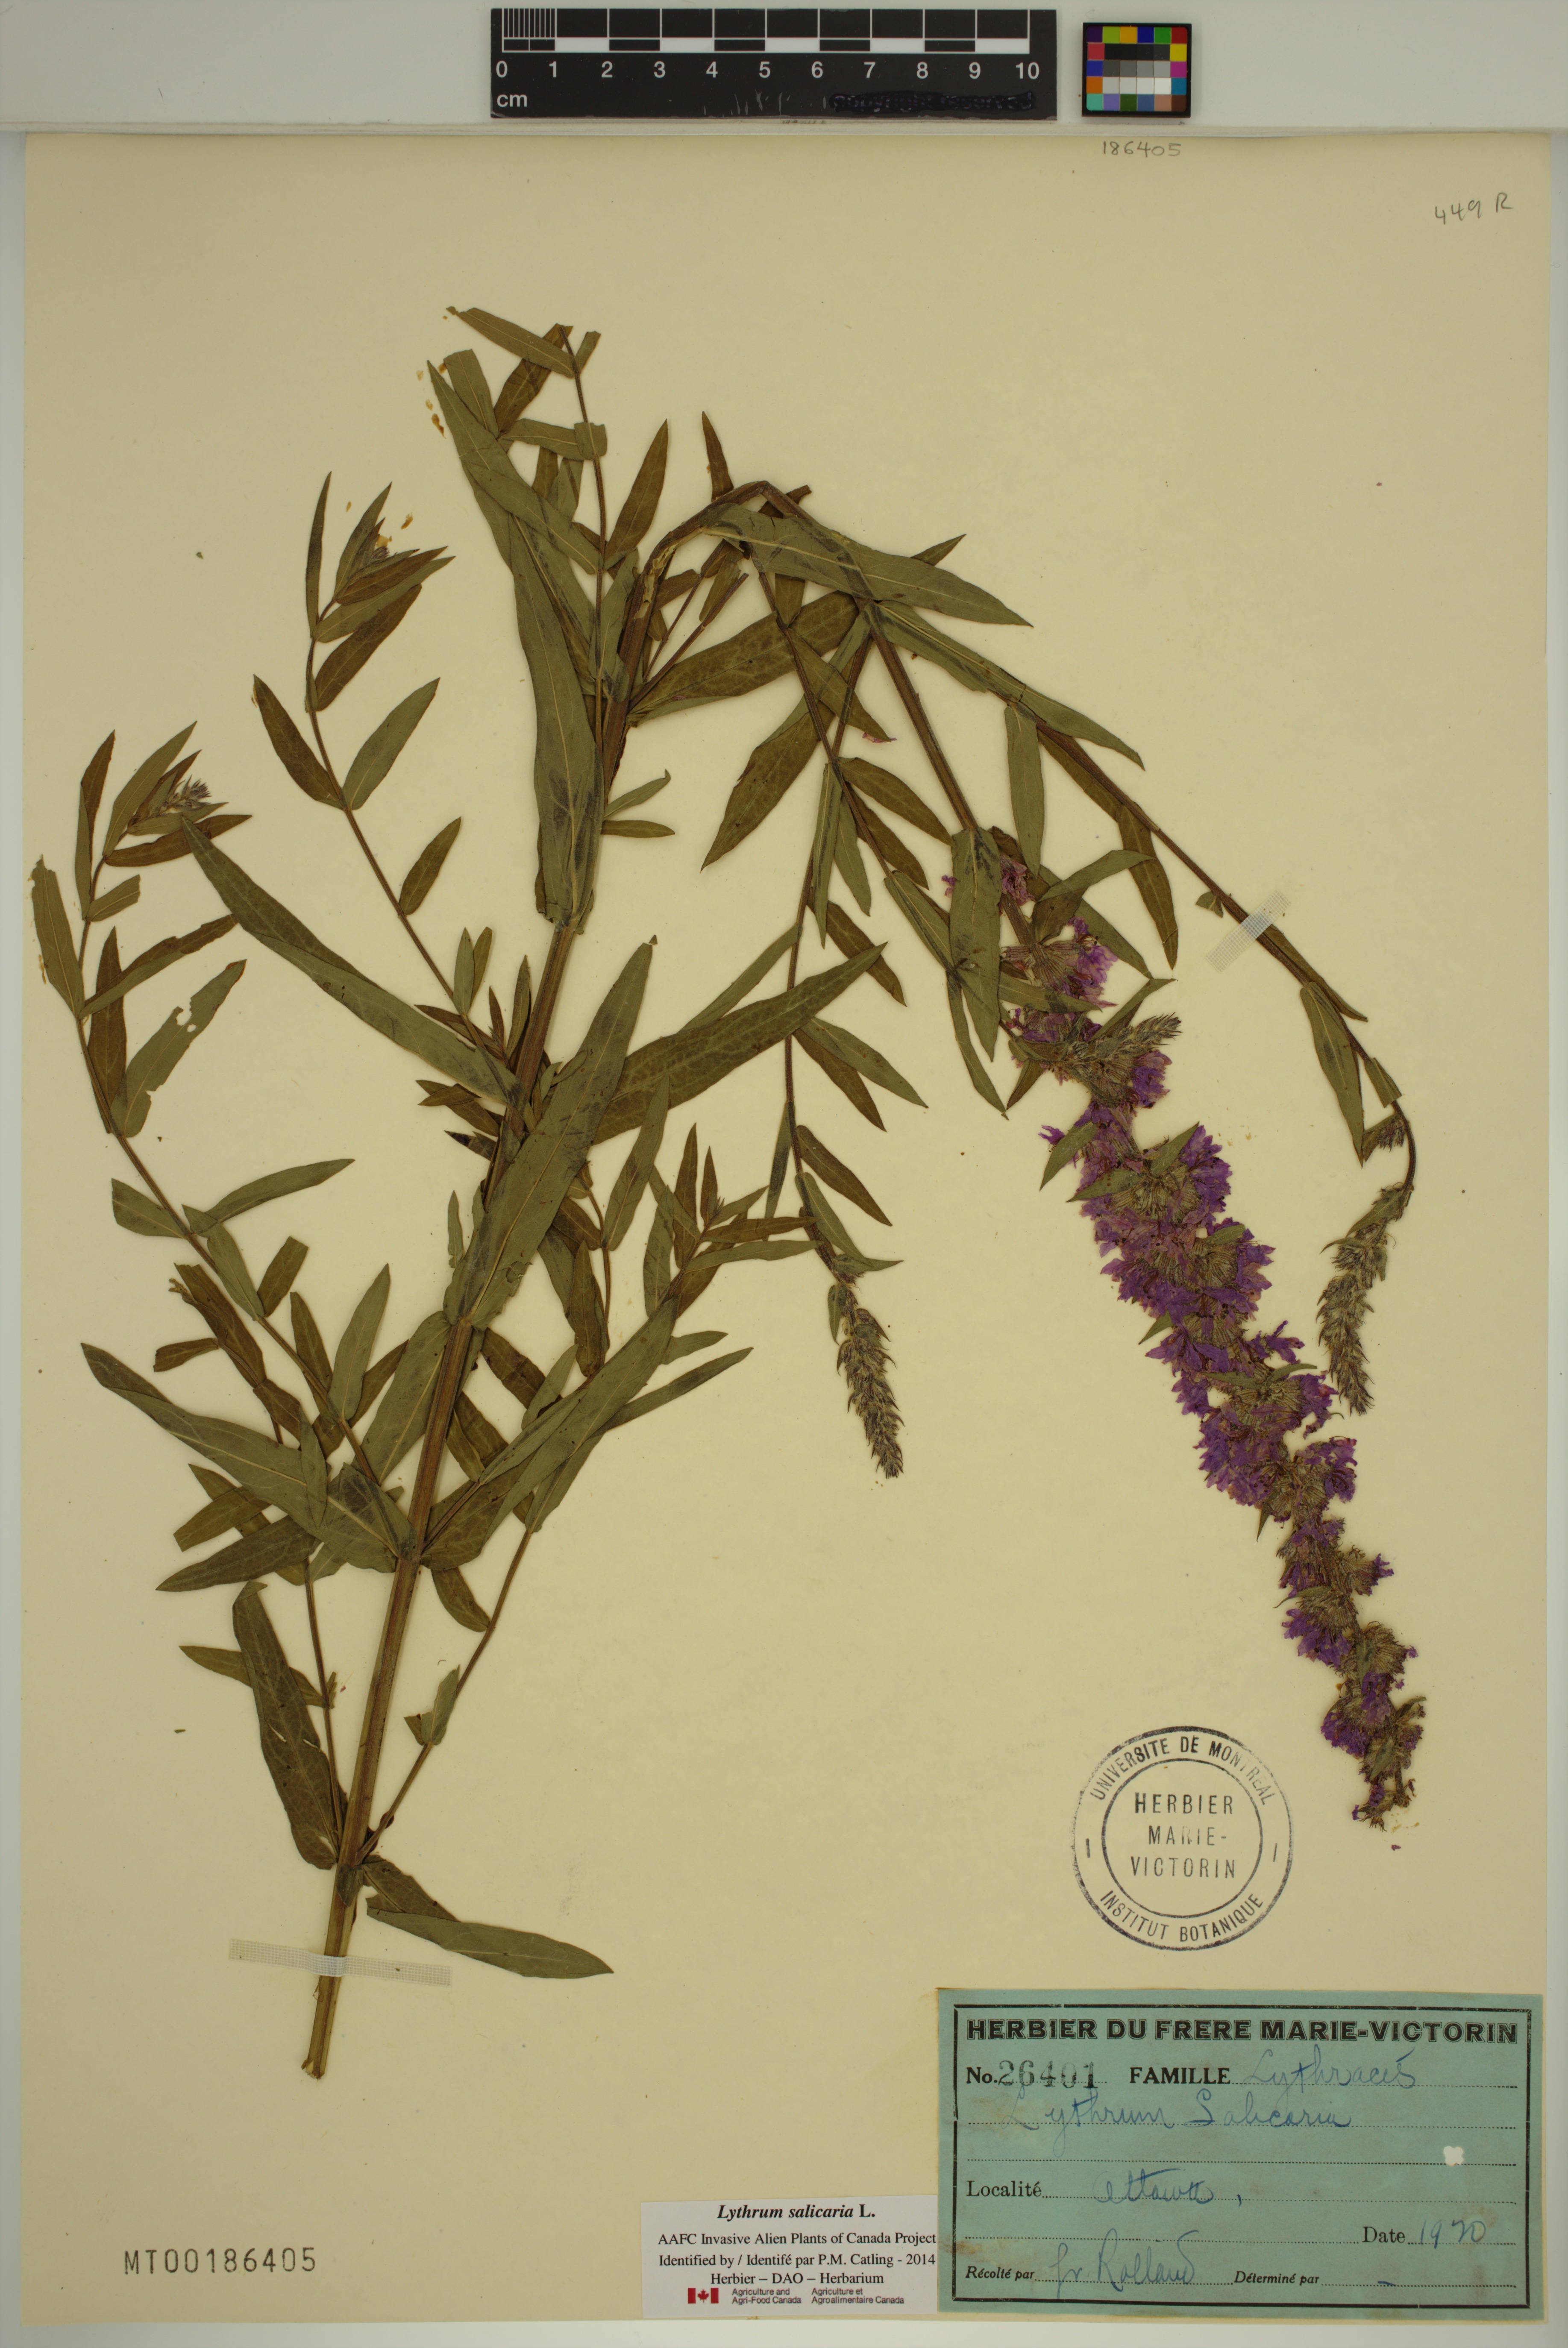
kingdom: Plantae
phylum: Tracheophyta
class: Magnoliopsida
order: Myrtales
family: Lythraceae
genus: Lythrum
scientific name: Lythrum salicaria
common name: Purple loosestrife
